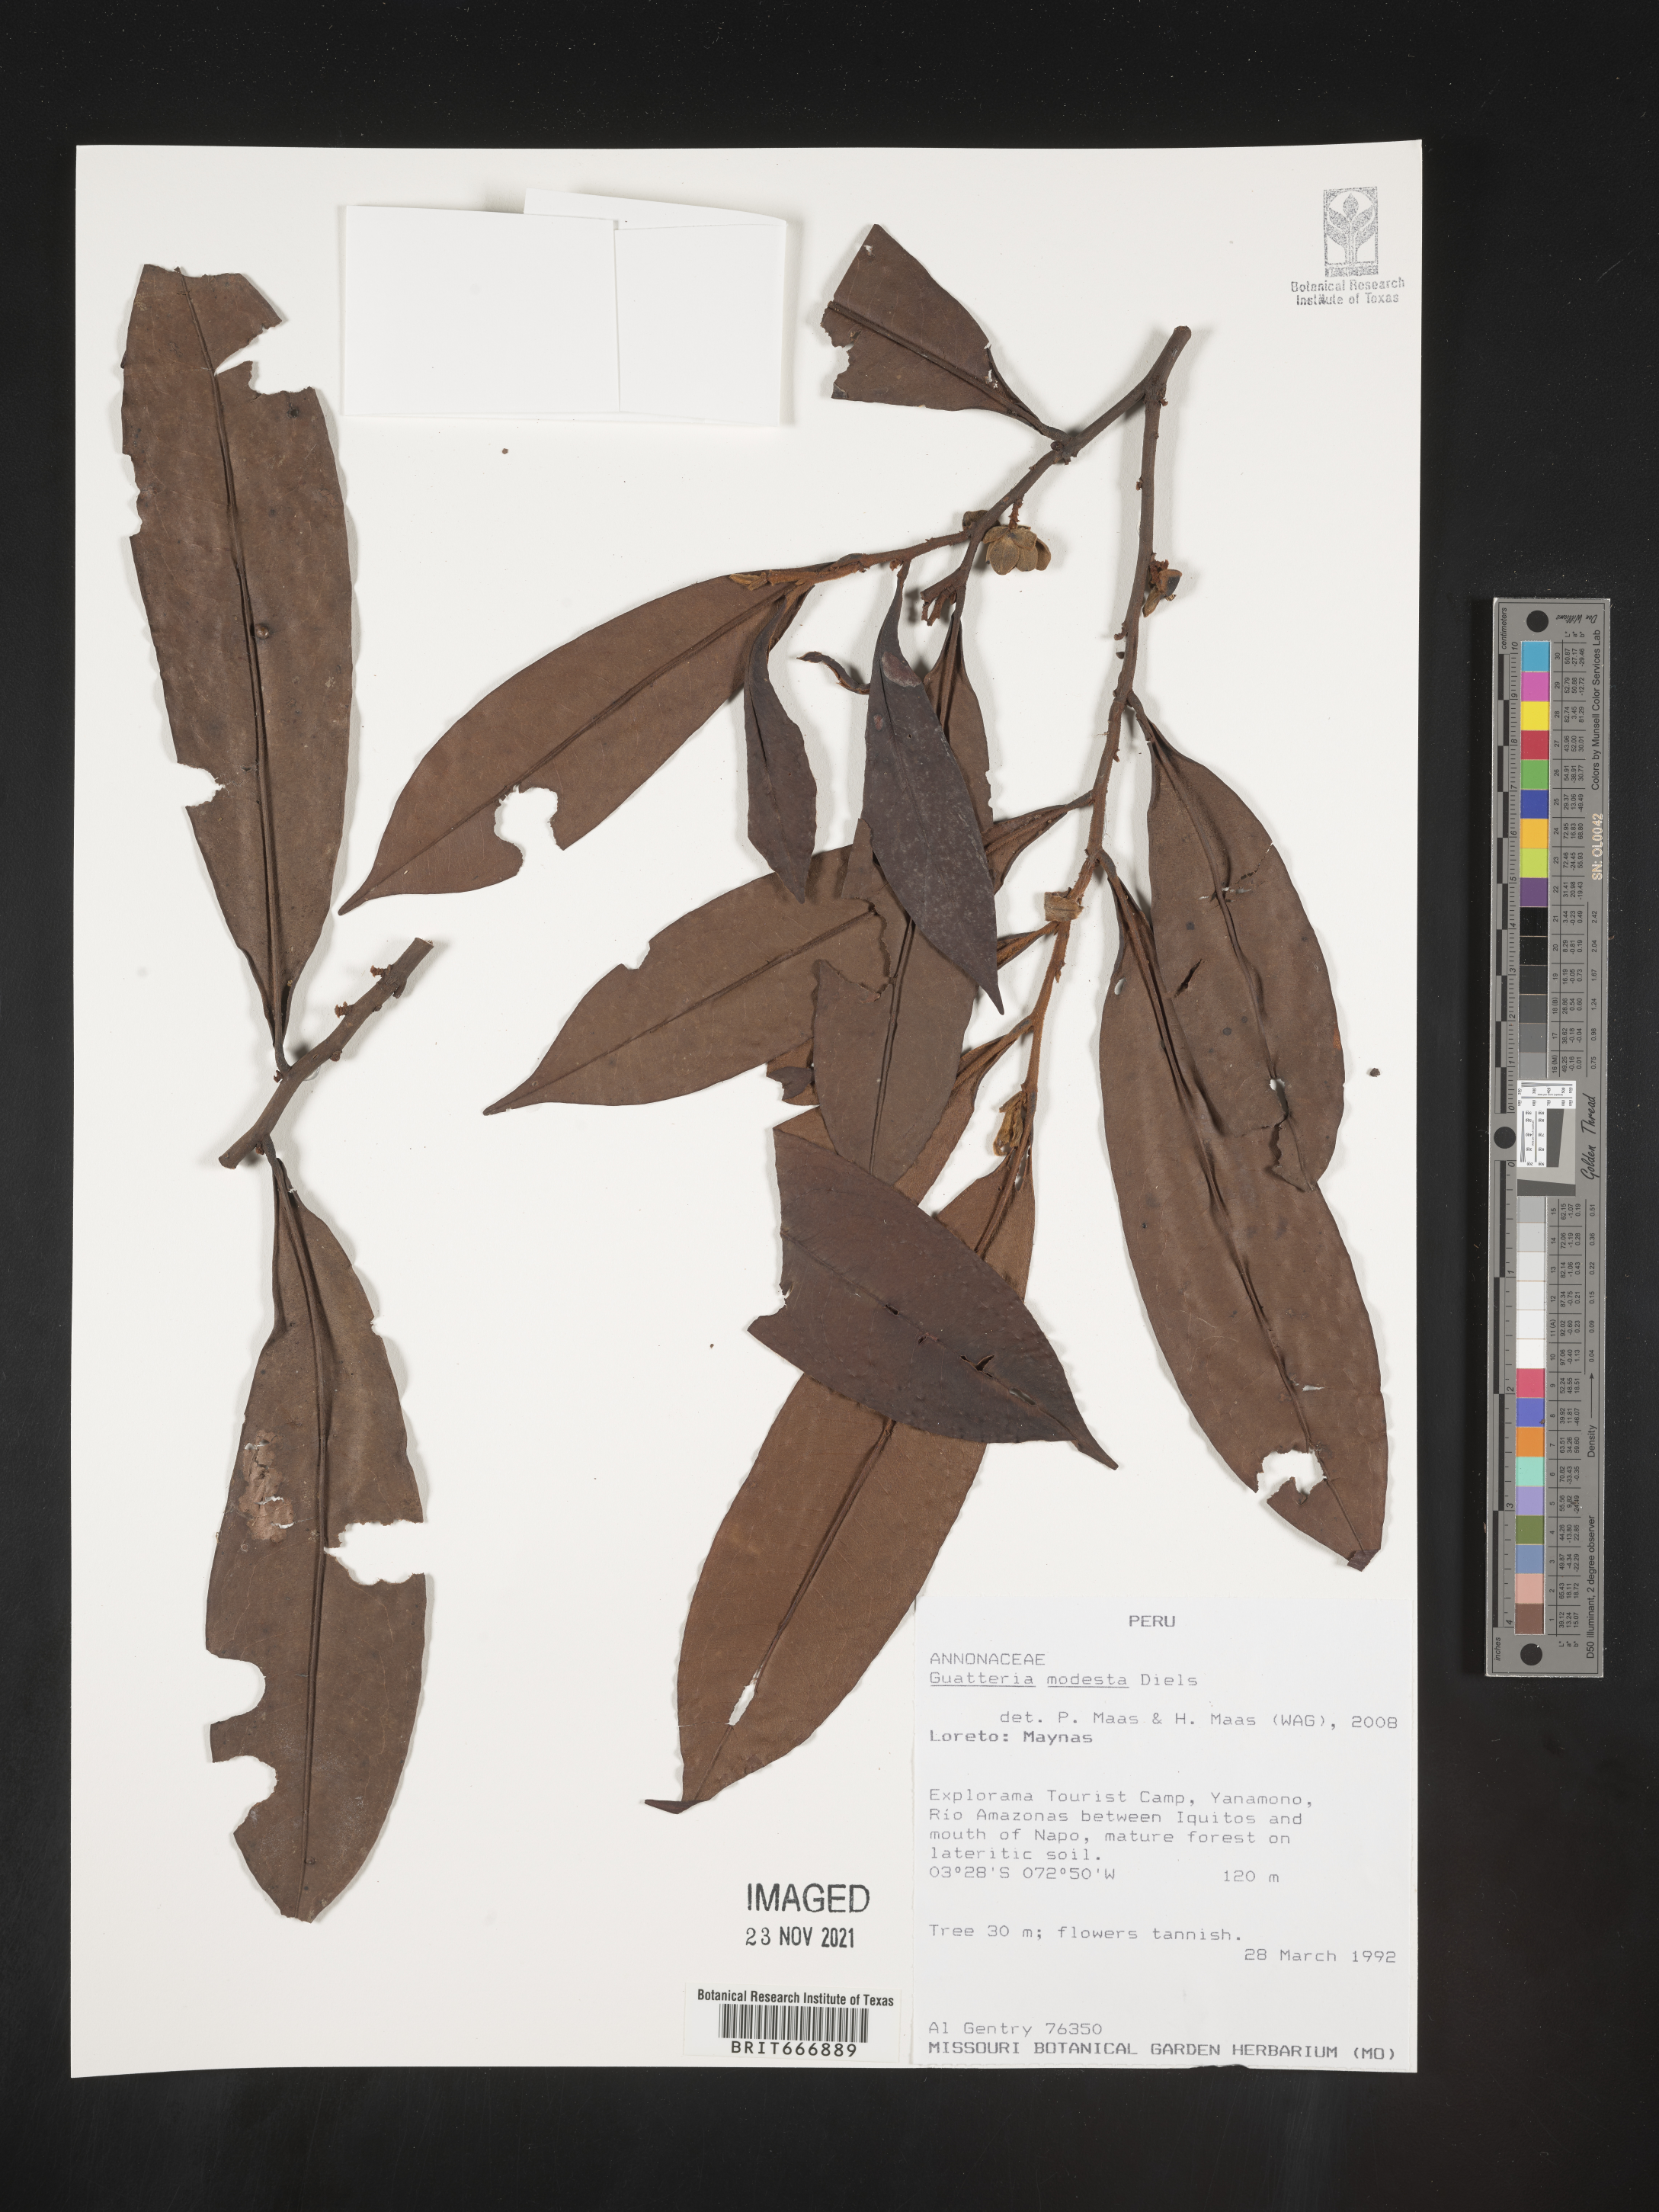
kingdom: Plantae
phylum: Tracheophyta
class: Magnoliopsida
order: Magnoliales
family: Annonaceae
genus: Guatteria
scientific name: Guatteria
